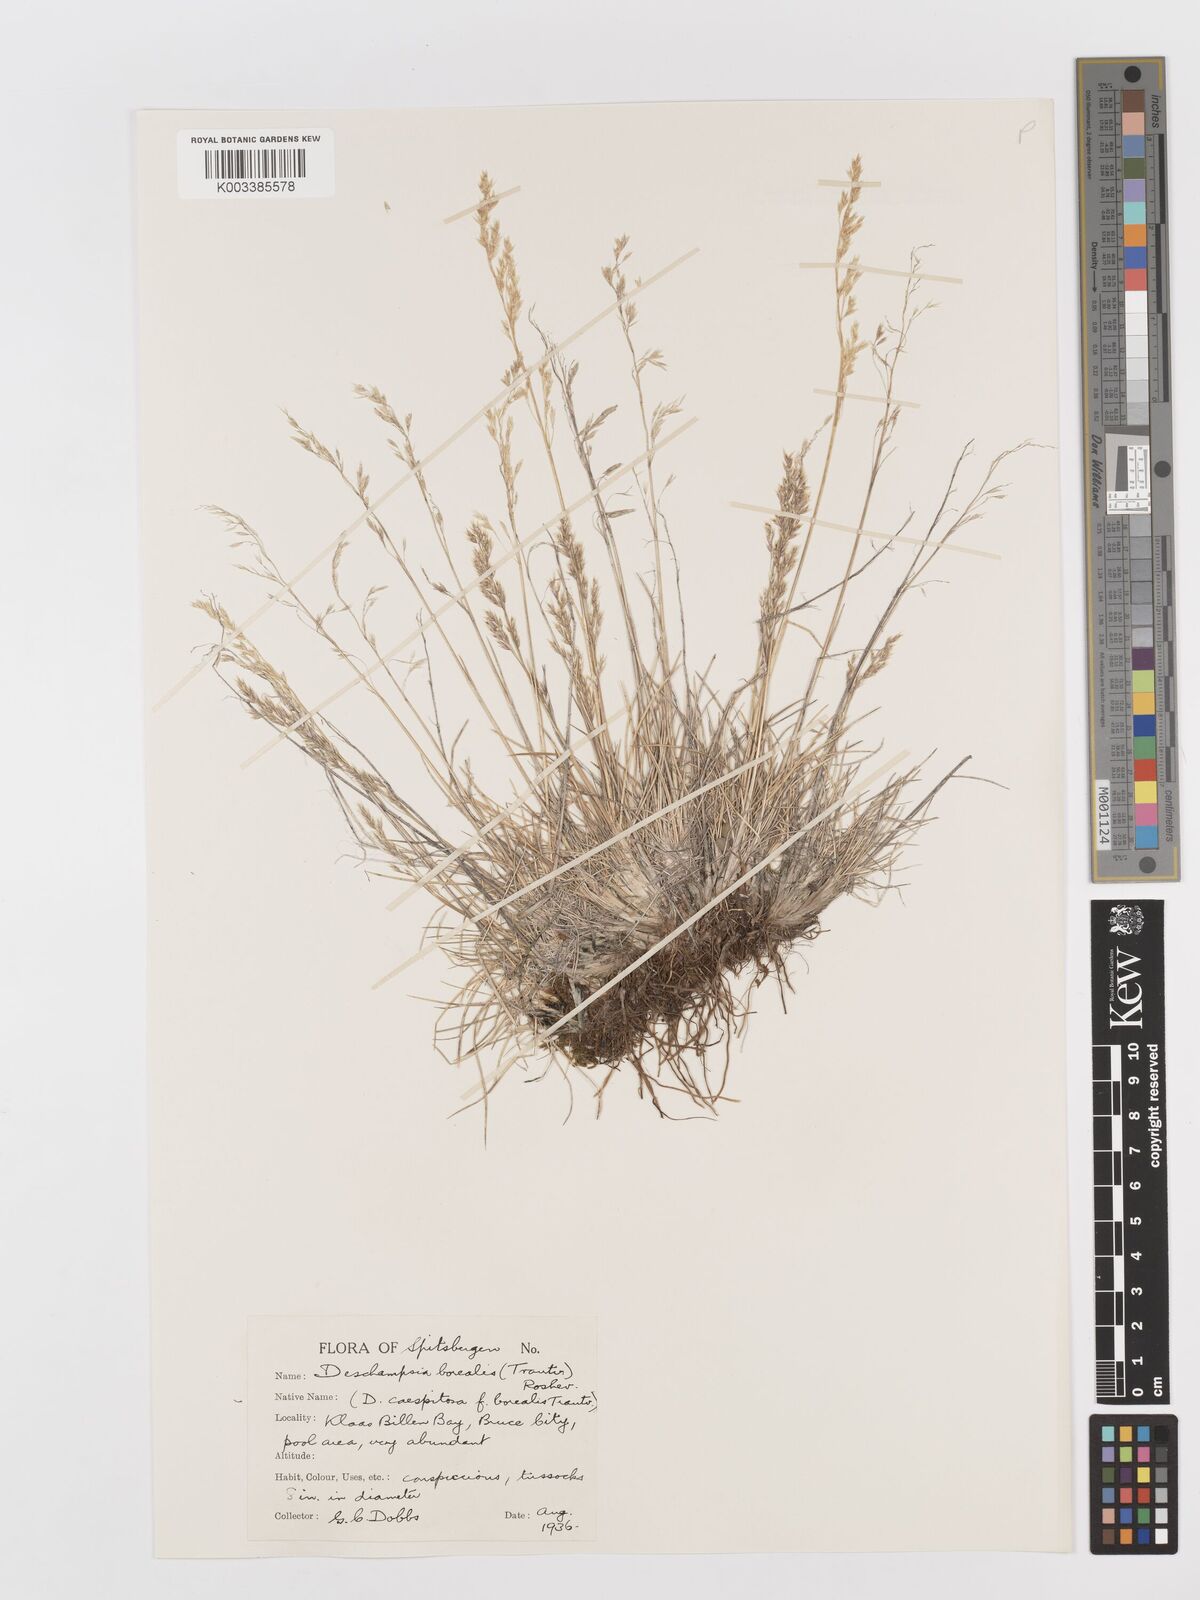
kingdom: Plantae
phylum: Tracheophyta
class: Liliopsida
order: Poales
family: Poaceae
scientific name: Poaceae
